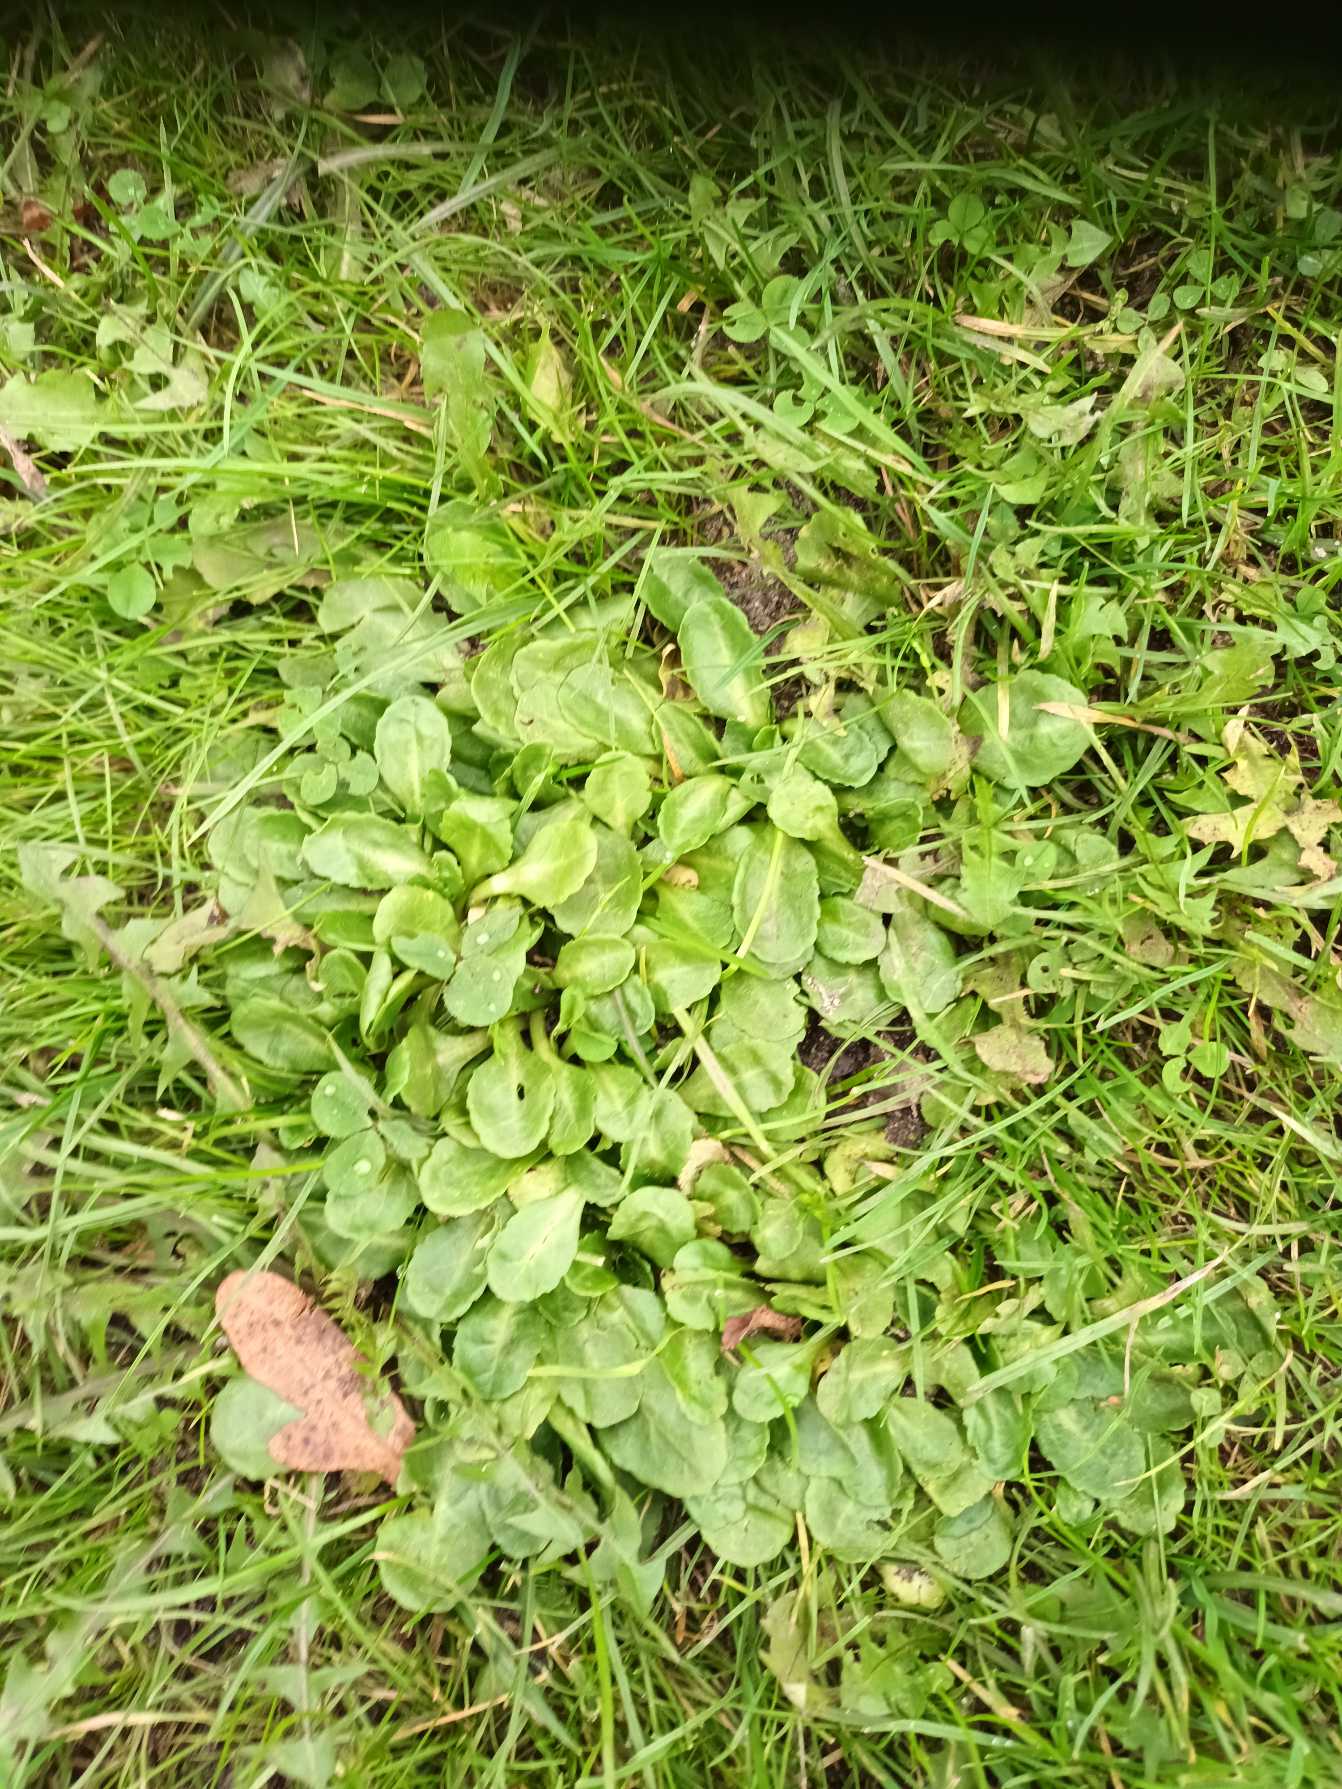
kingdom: Plantae
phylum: Tracheophyta
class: Magnoliopsida
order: Asterales
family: Asteraceae
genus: Bellis
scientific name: Bellis perennis
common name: Tusindfryd
